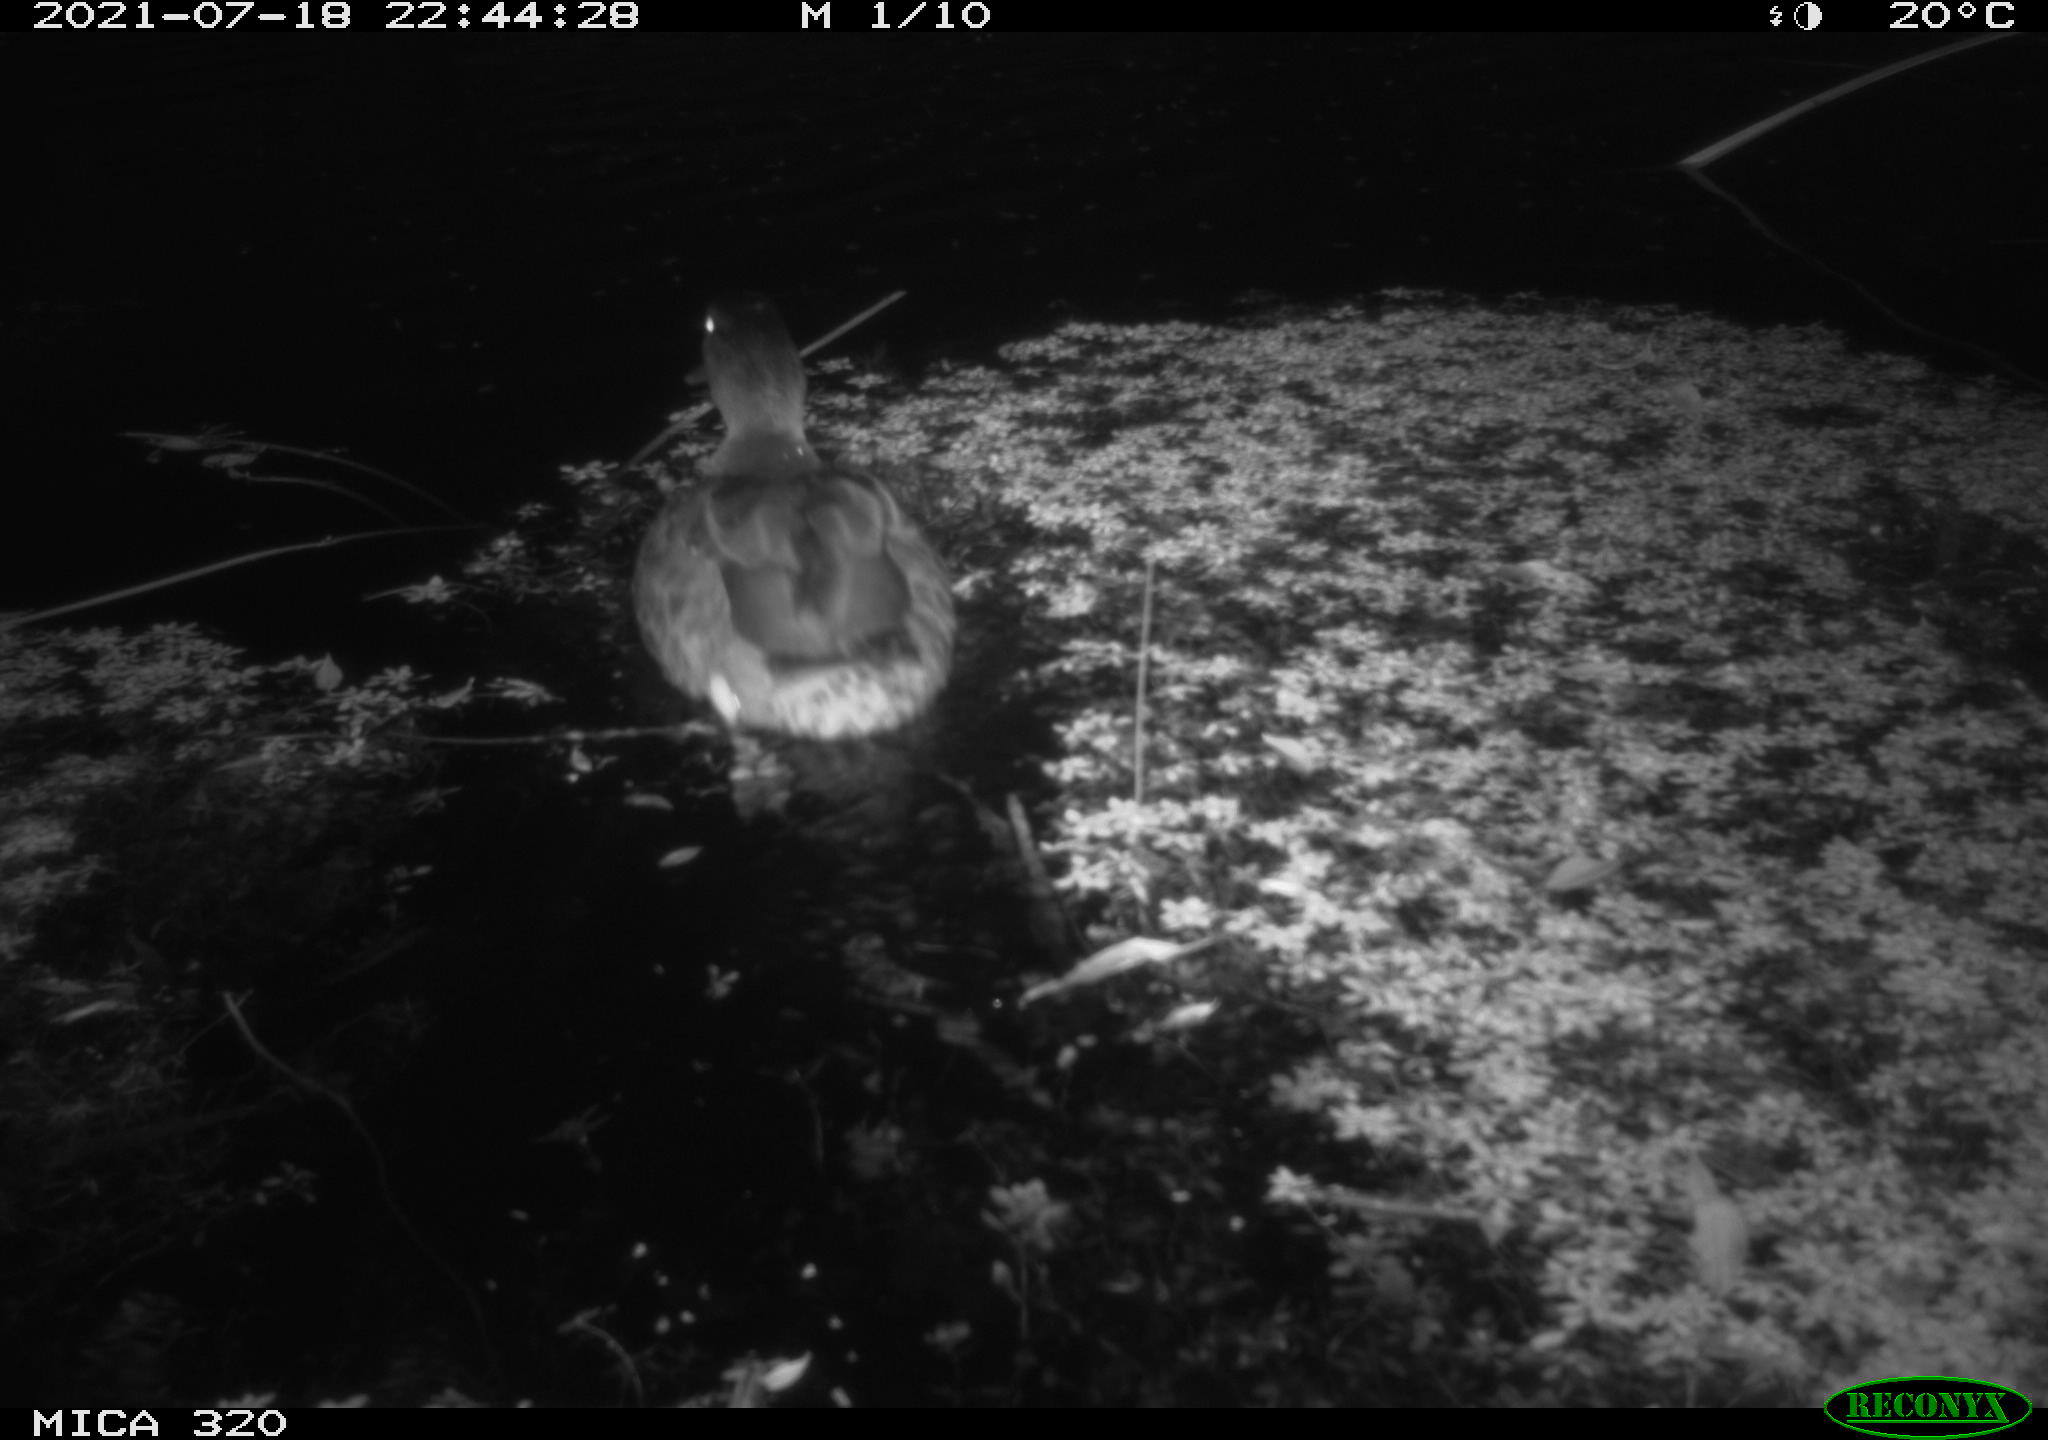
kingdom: Animalia
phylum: Chordata
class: Aves
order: Anseriformes
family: Anatidae
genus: Anas
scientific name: Anas platyrhynchos
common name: Mallard
